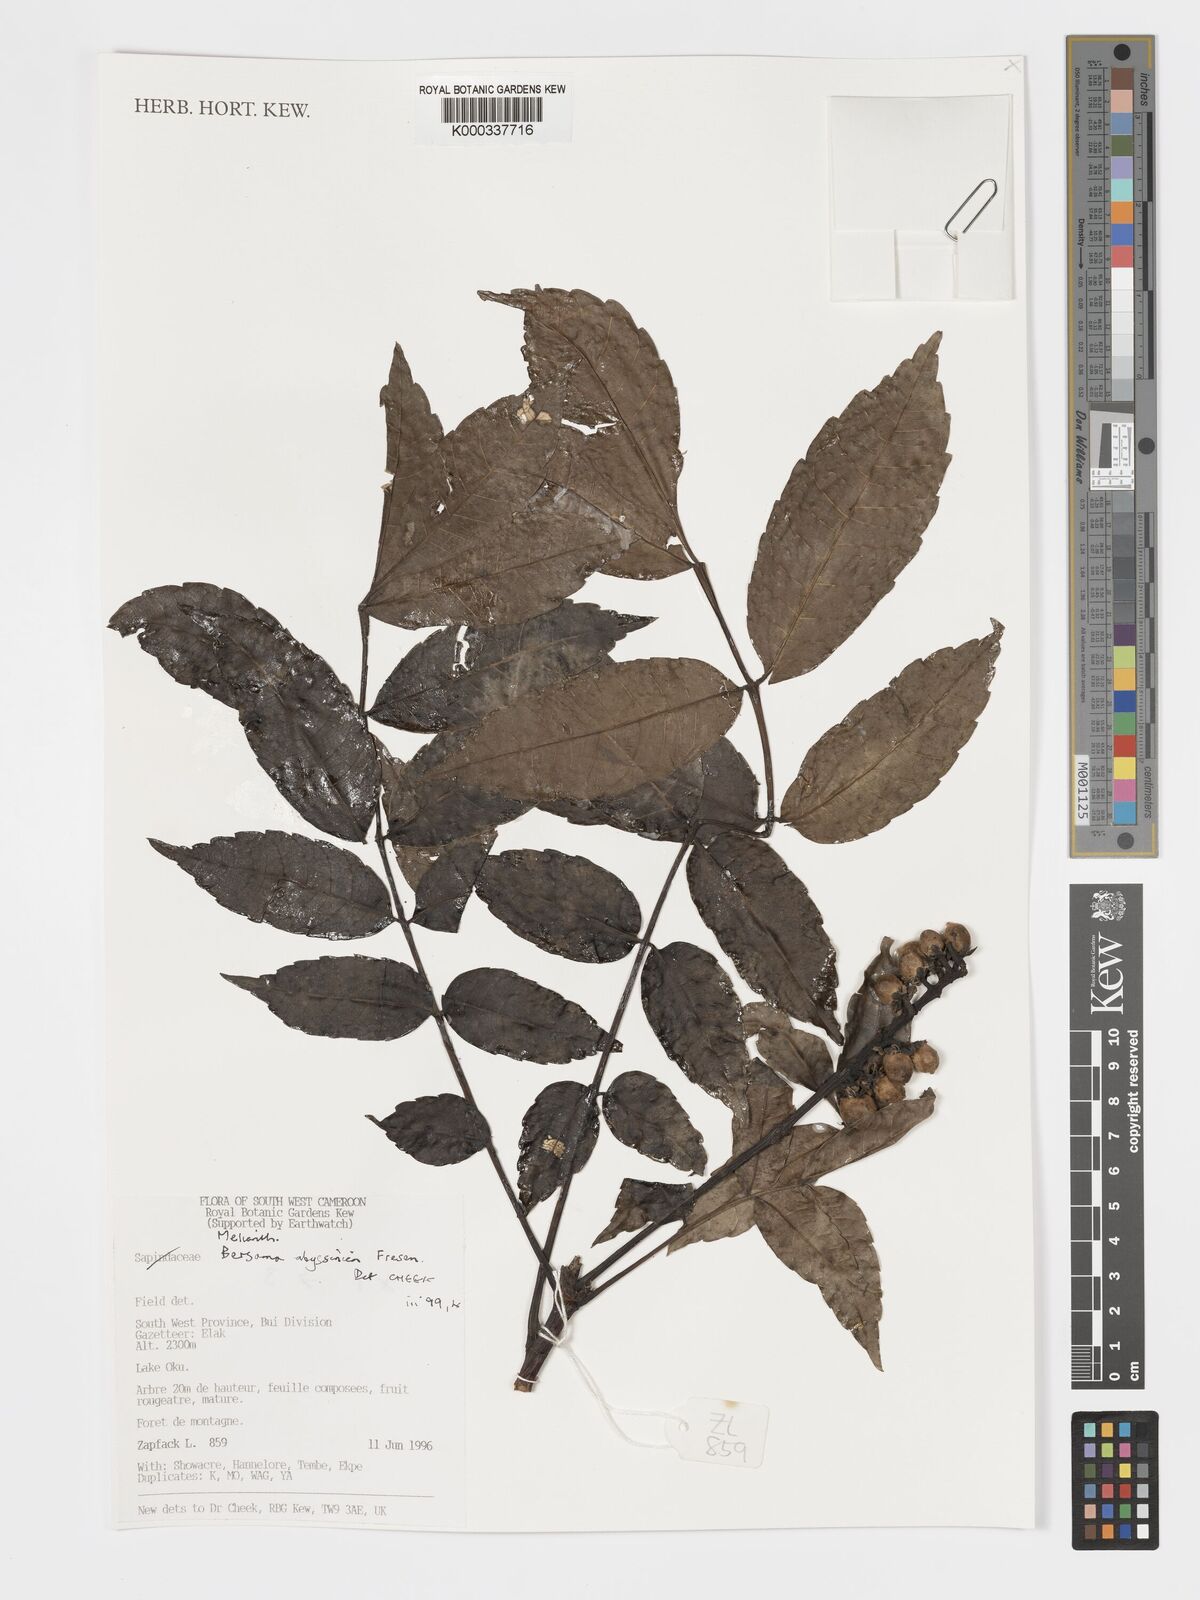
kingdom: Plantae
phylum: Tracheophyta
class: Magnoliopsida
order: Geraniales
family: Melianthaceae
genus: Bersama
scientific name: Bersama abyssinica
